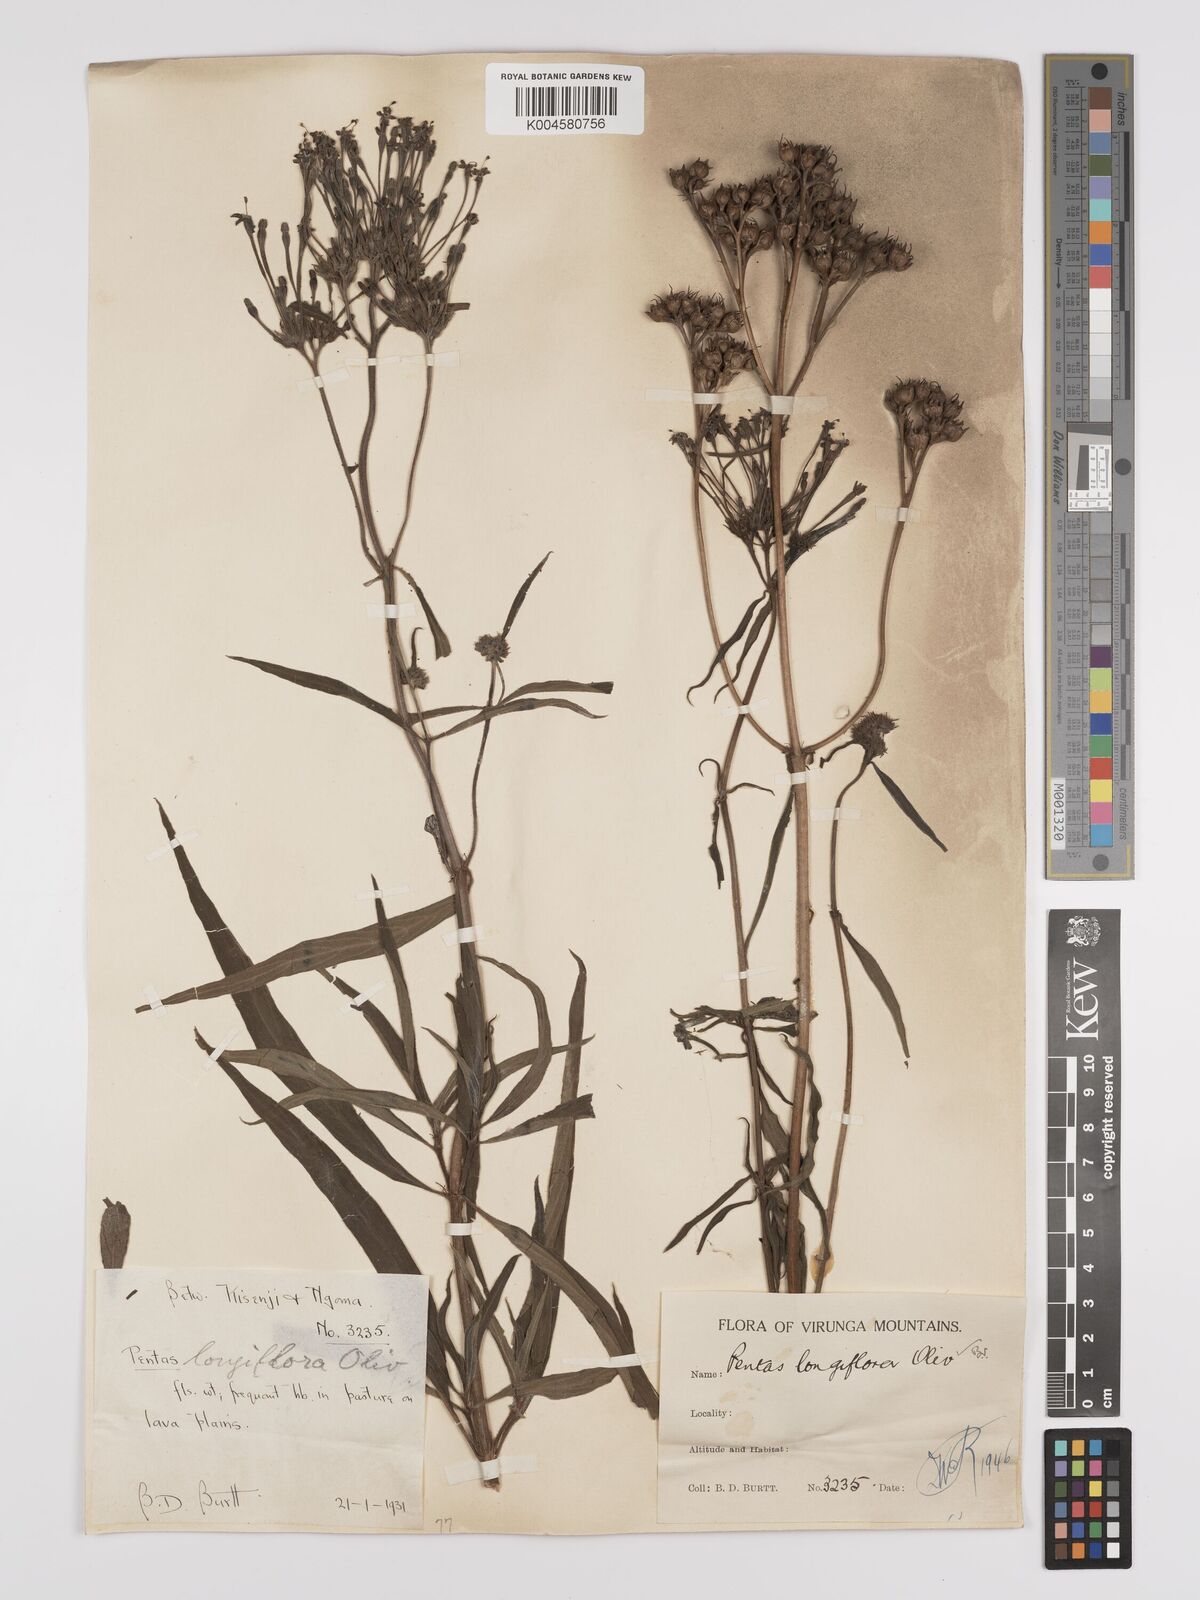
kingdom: Plantae
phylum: Tracheophyta
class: Magnoliopsida
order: Gentianales
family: Rubiaceae
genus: Dolichopentas
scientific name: Dolichopentas longiflora
